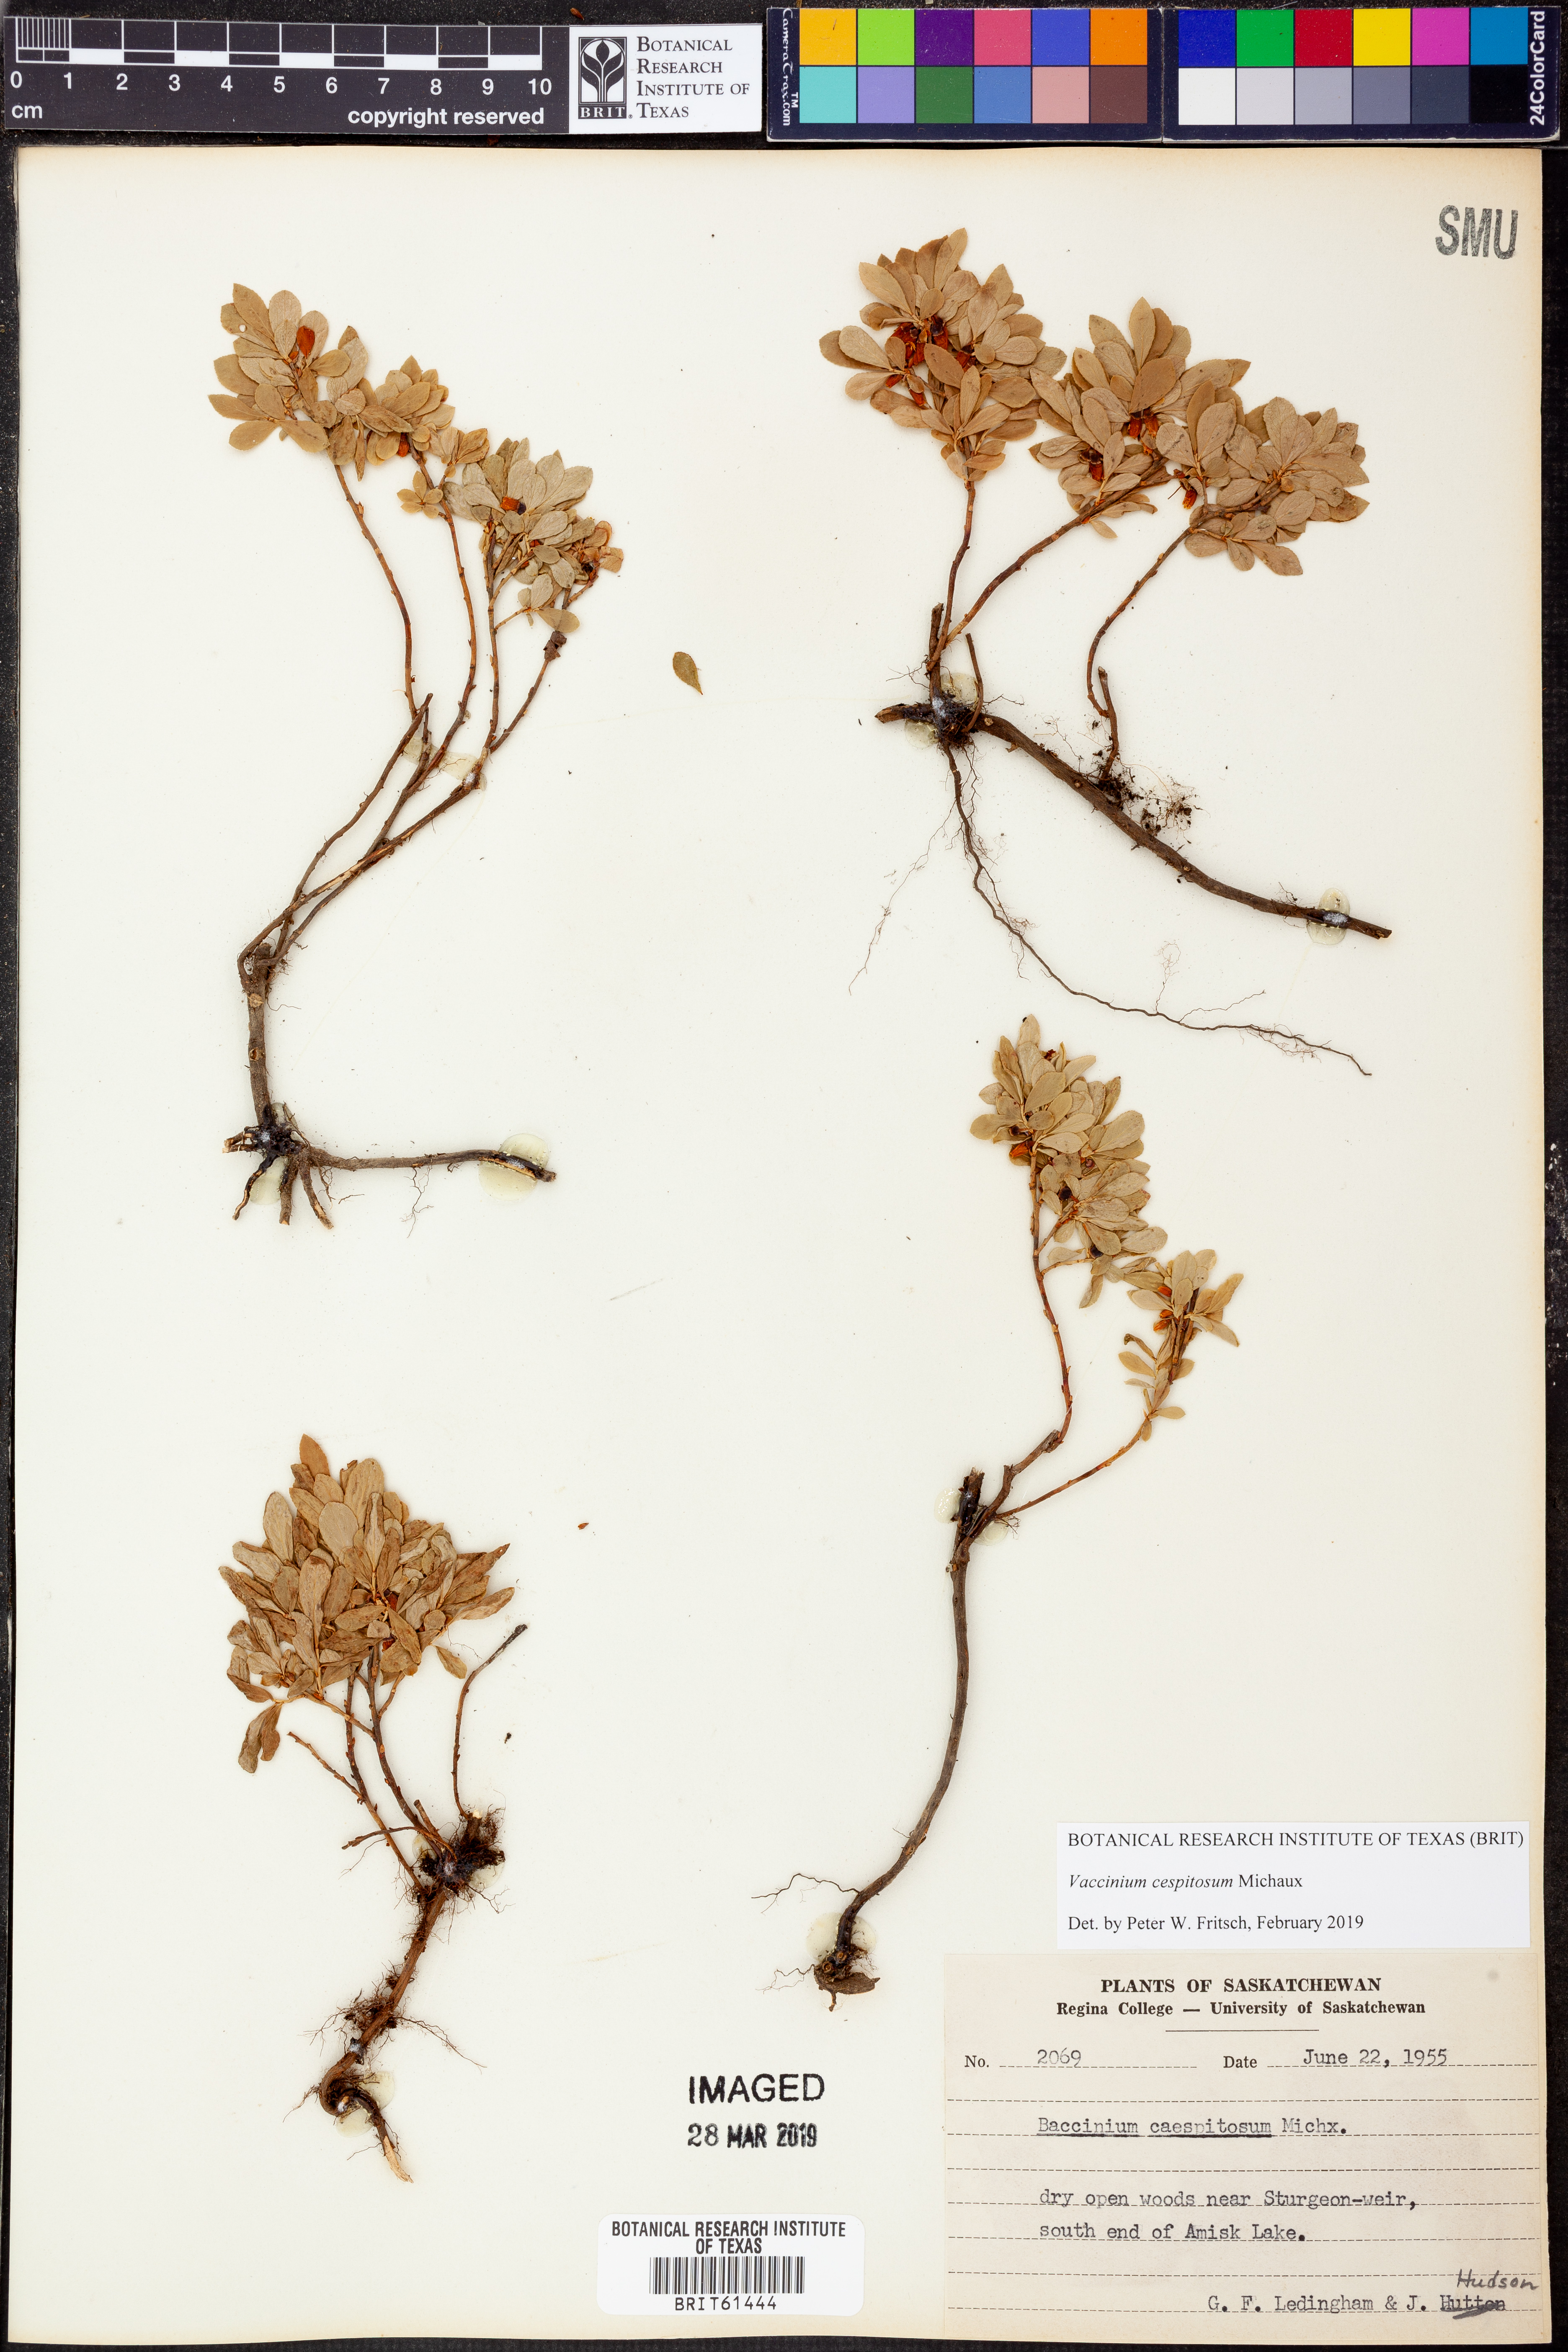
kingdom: Plantae
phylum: Tracheophyta
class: Magnoliopsida
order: Ericales
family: Ericaceae
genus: Vaccinium
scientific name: Vaccinium cespitosum
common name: Dwarf bilberry
